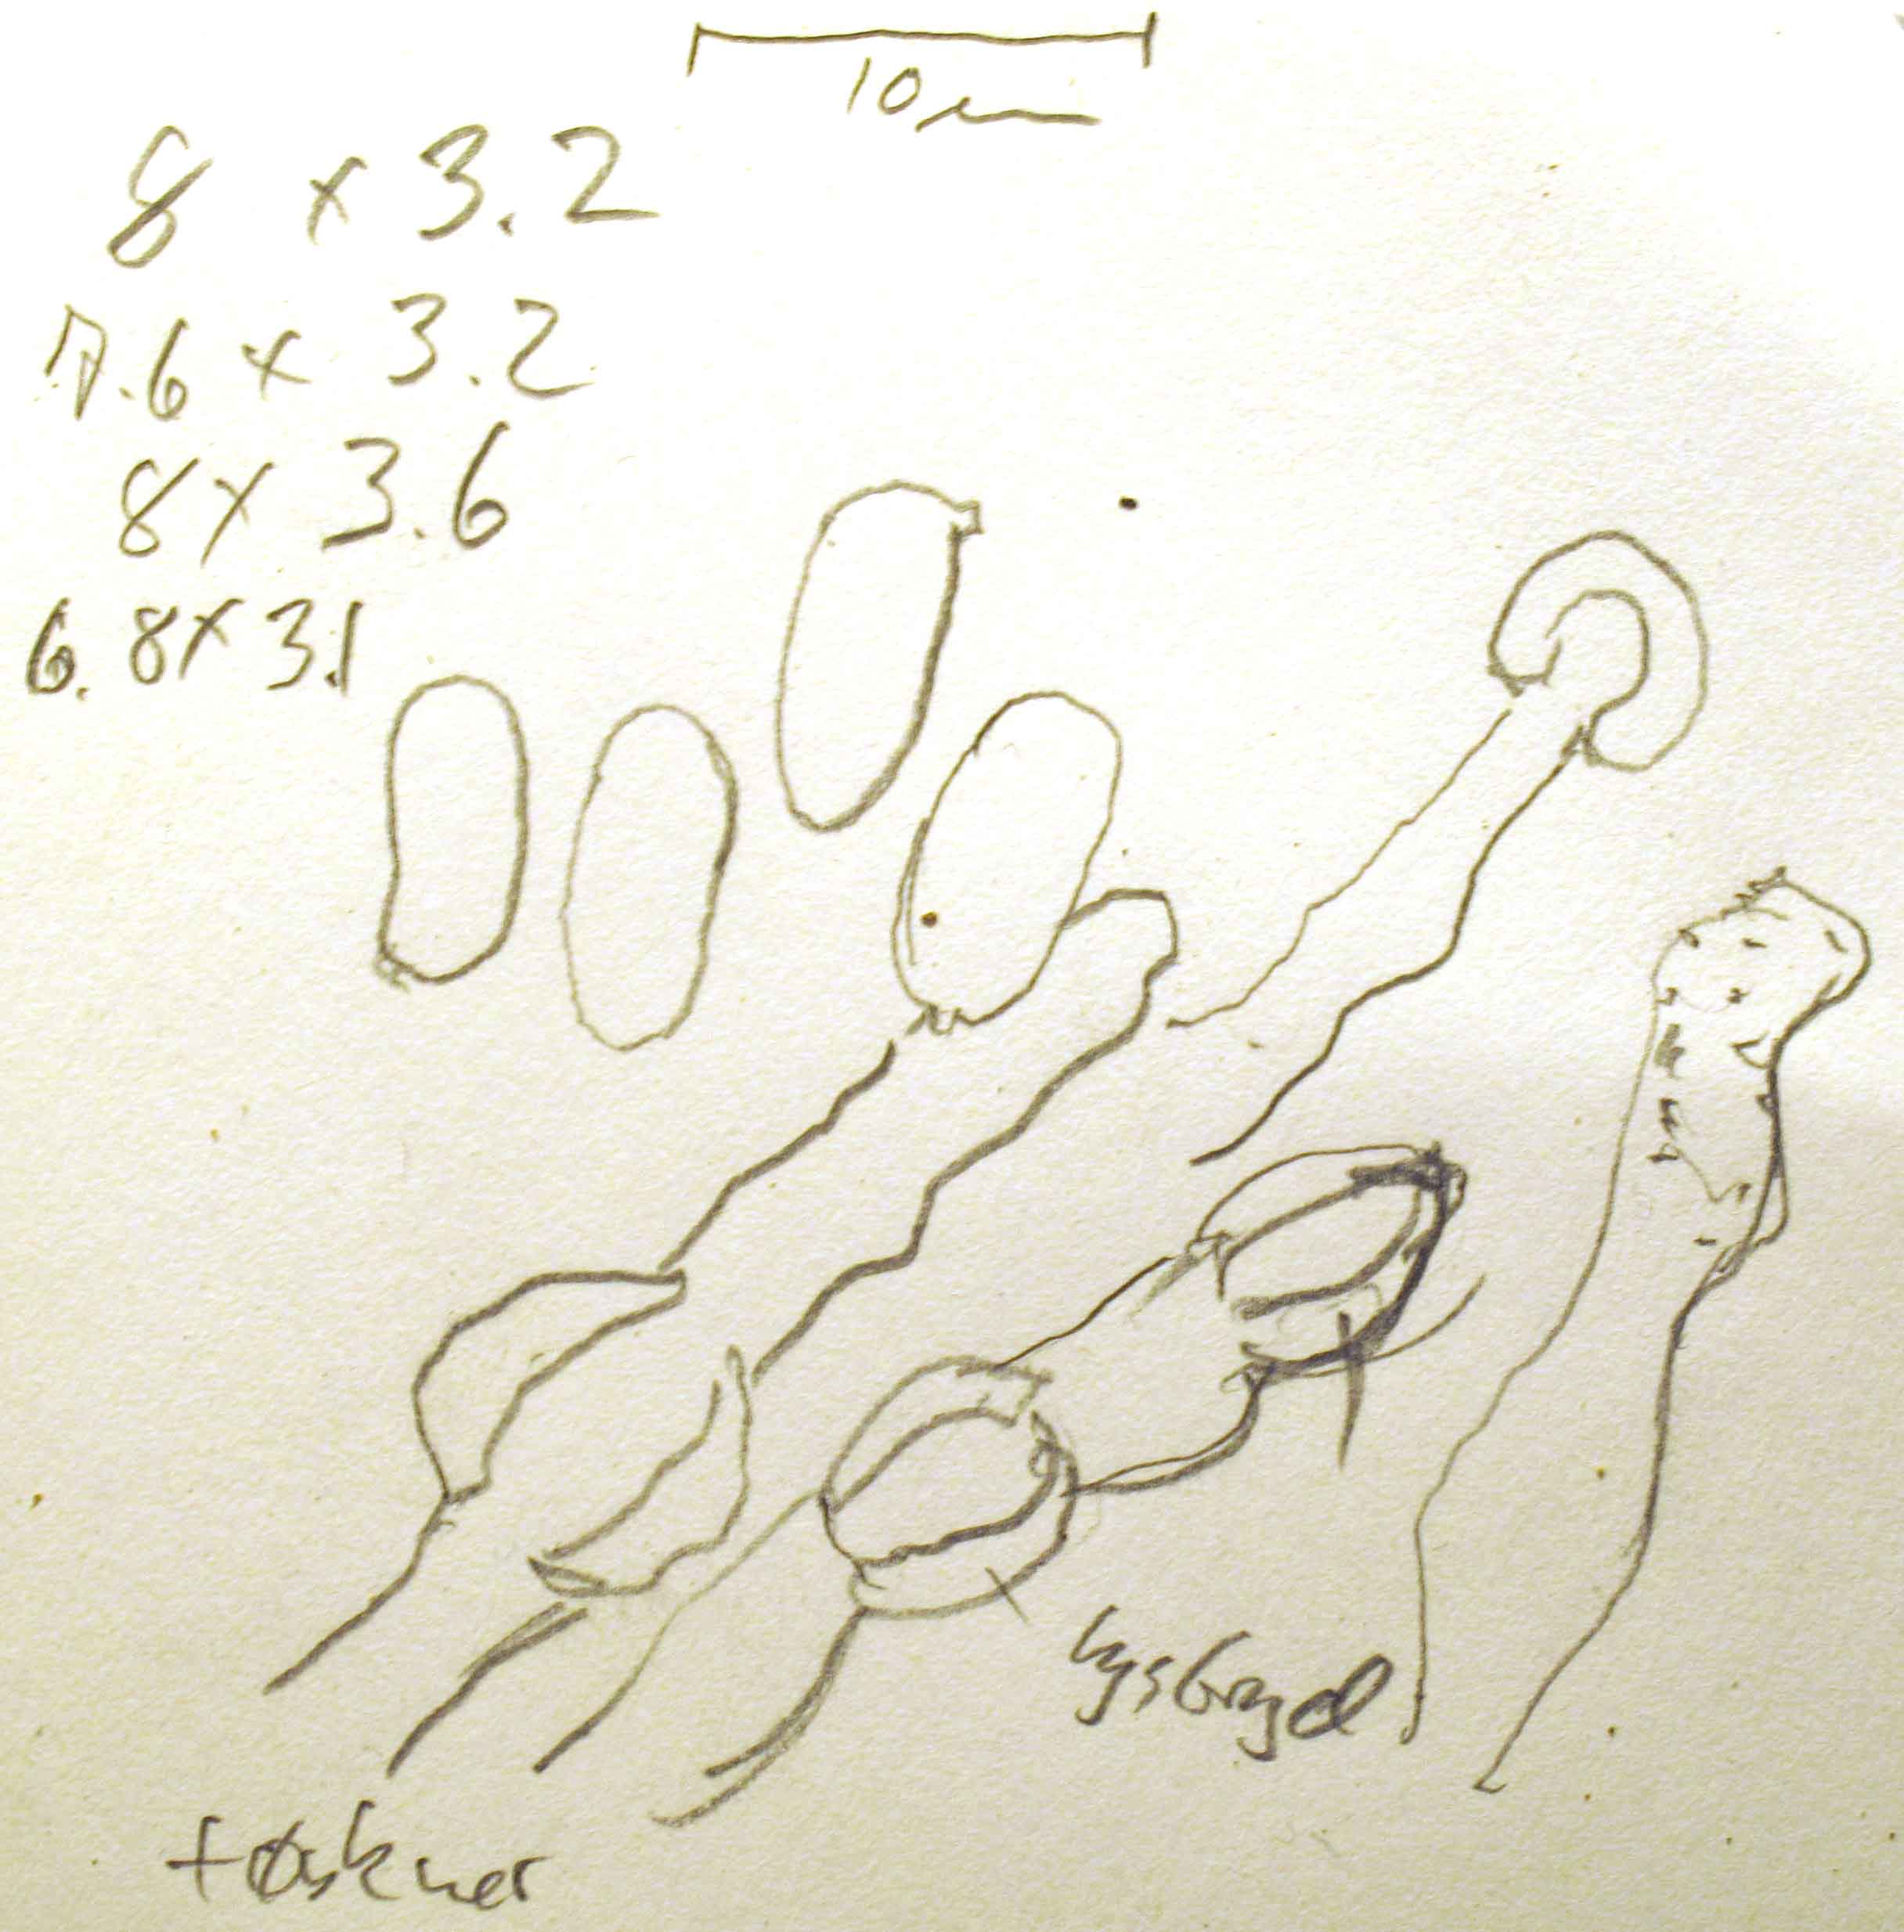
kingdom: Fungi
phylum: Basidiomycota
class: Agaricomycetes
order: Hymenochaetales
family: Hyphodontiaceae
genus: Hyphodontia
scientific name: Hyphodontia quercina
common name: ege-tandsvamp
